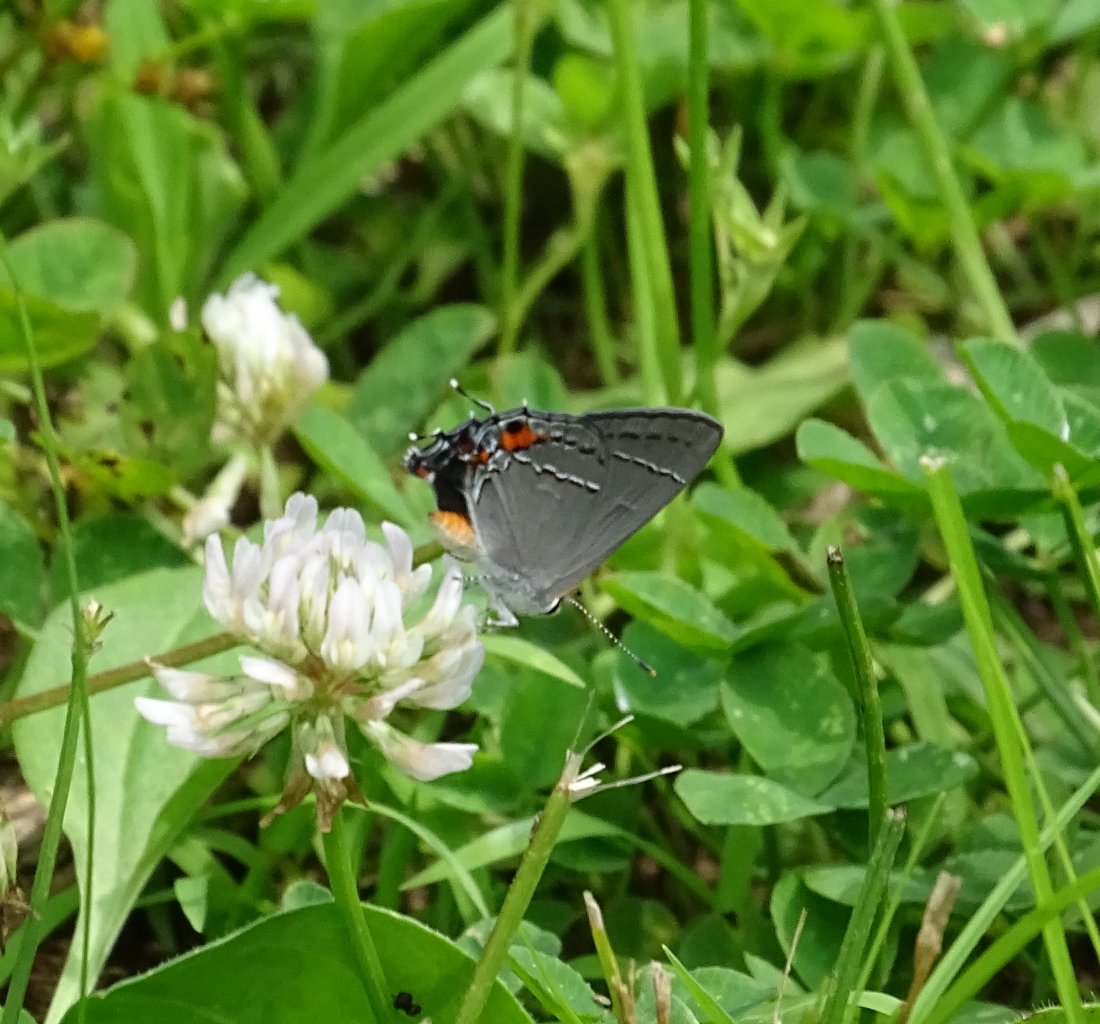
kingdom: Animalia
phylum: Arthropoda
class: Insecta
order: Lepidoptera
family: Lycaenidae
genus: Strymon
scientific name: Strymon melinus
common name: Gray Hairstreak
